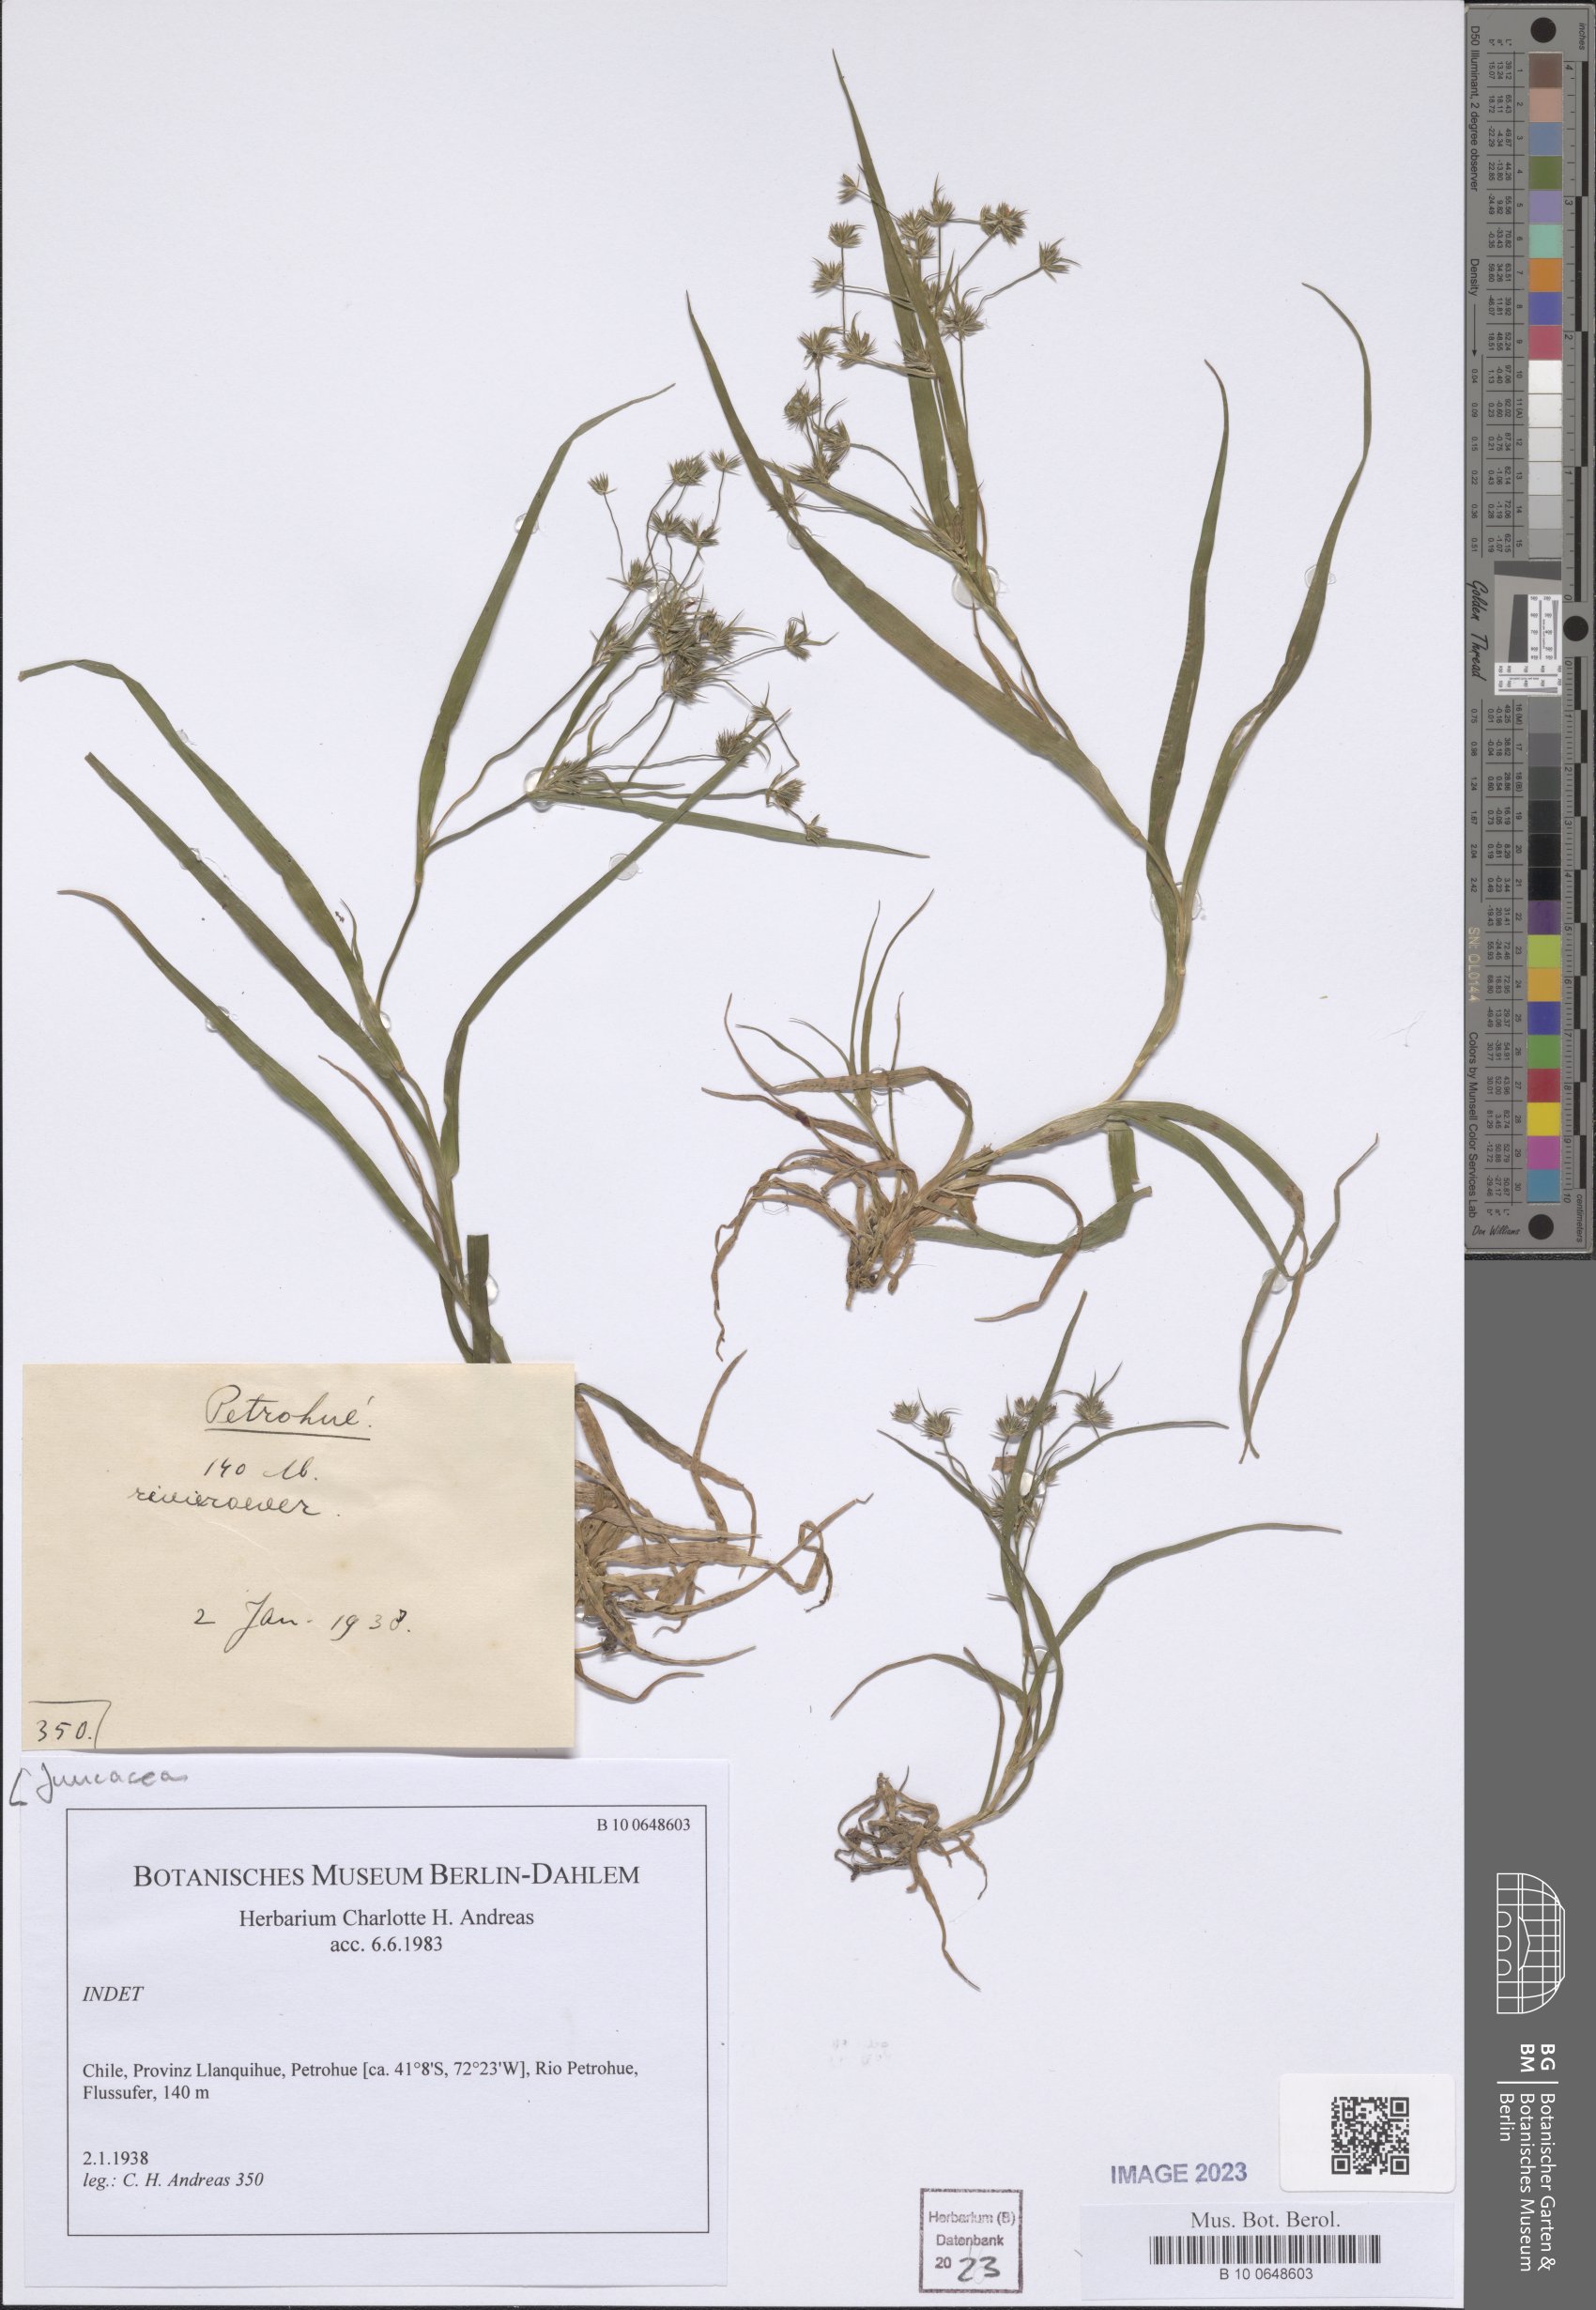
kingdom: Plantae
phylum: Tracheophyta
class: Liliopsida
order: Poales
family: Juncaceae
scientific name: Juncaceae
